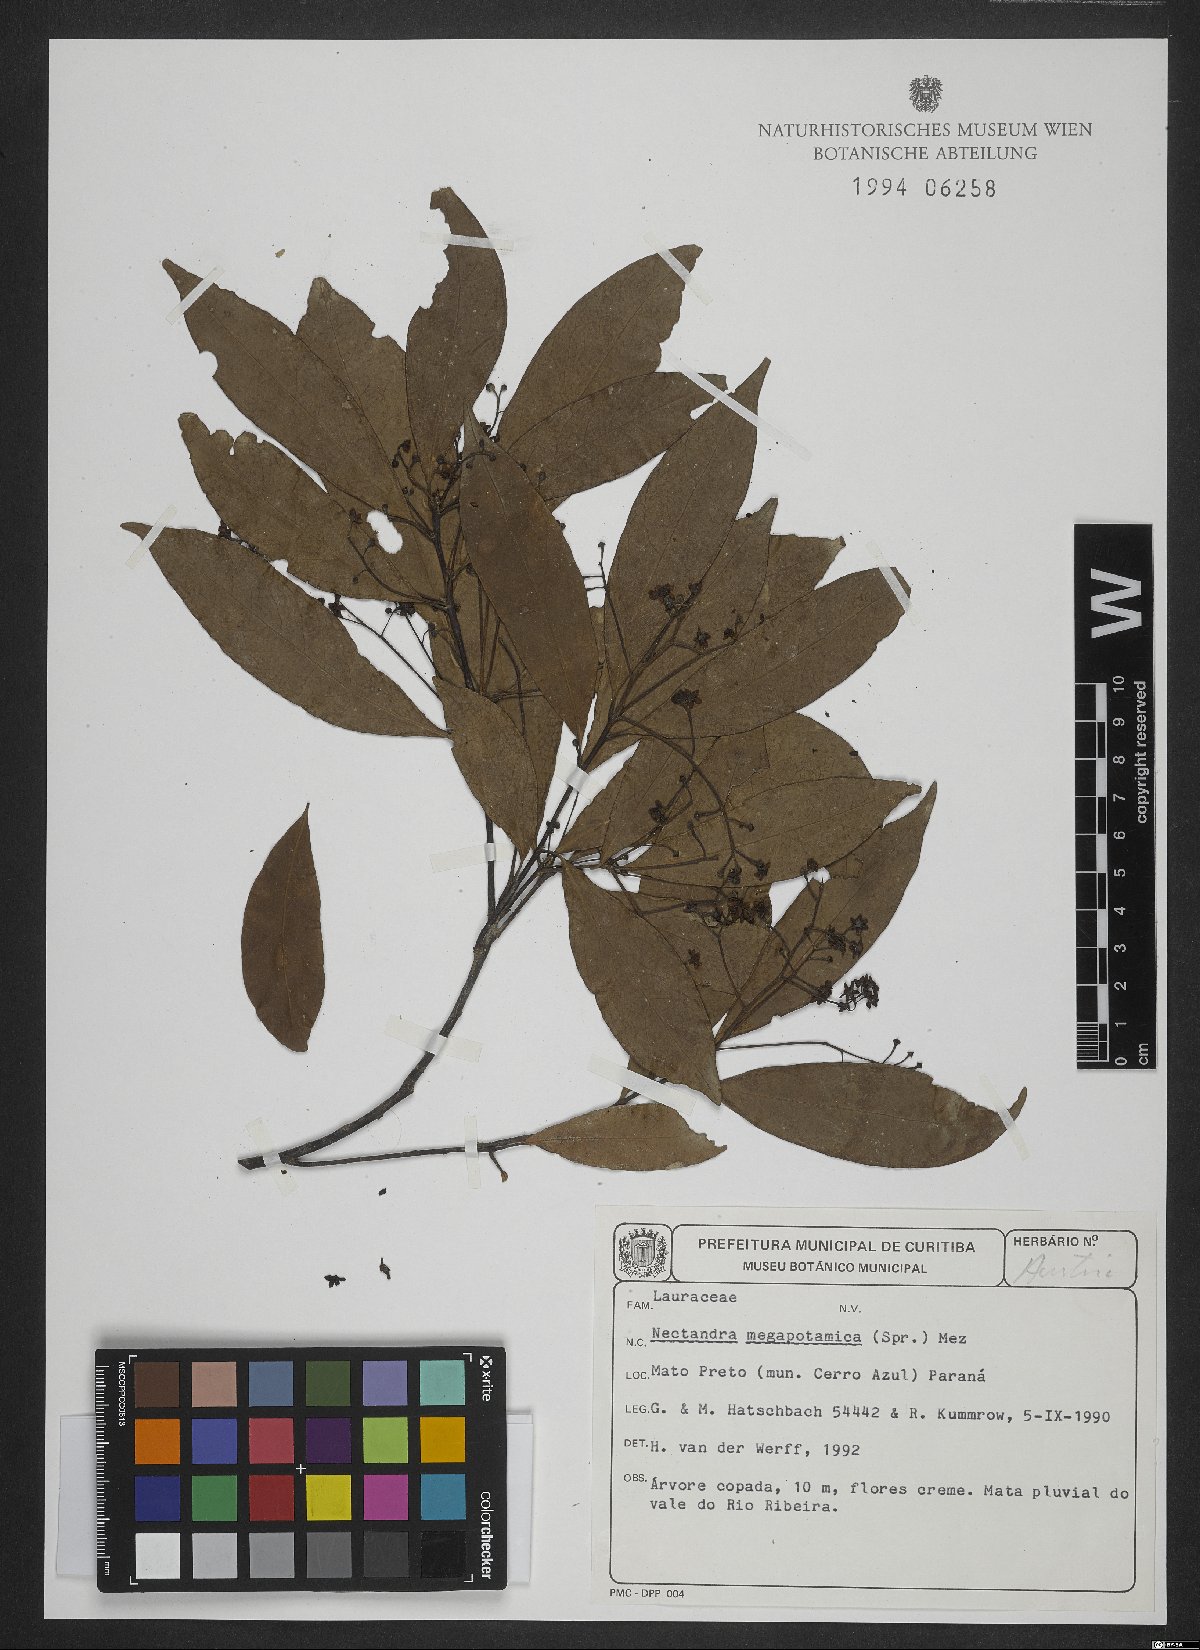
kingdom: Plantae
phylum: Tracheophyta
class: Magnoliopsida
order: Laurales
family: Lauraceae
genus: Nectandra
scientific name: Nectandra megapotamica
